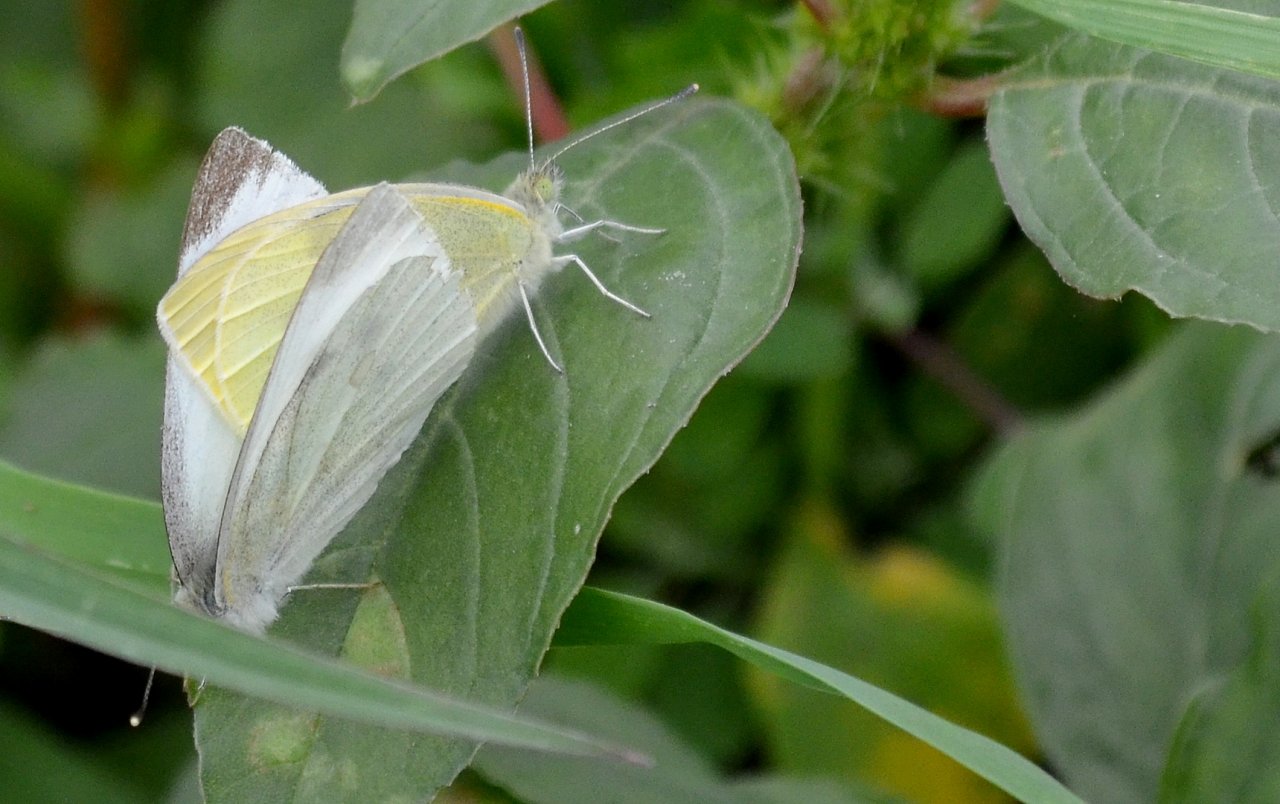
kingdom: Animalia
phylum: Arthropoda
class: Insecta
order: Lepidoptera
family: Pieridae
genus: Pieris
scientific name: Pieris rapae
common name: Cabbage White
